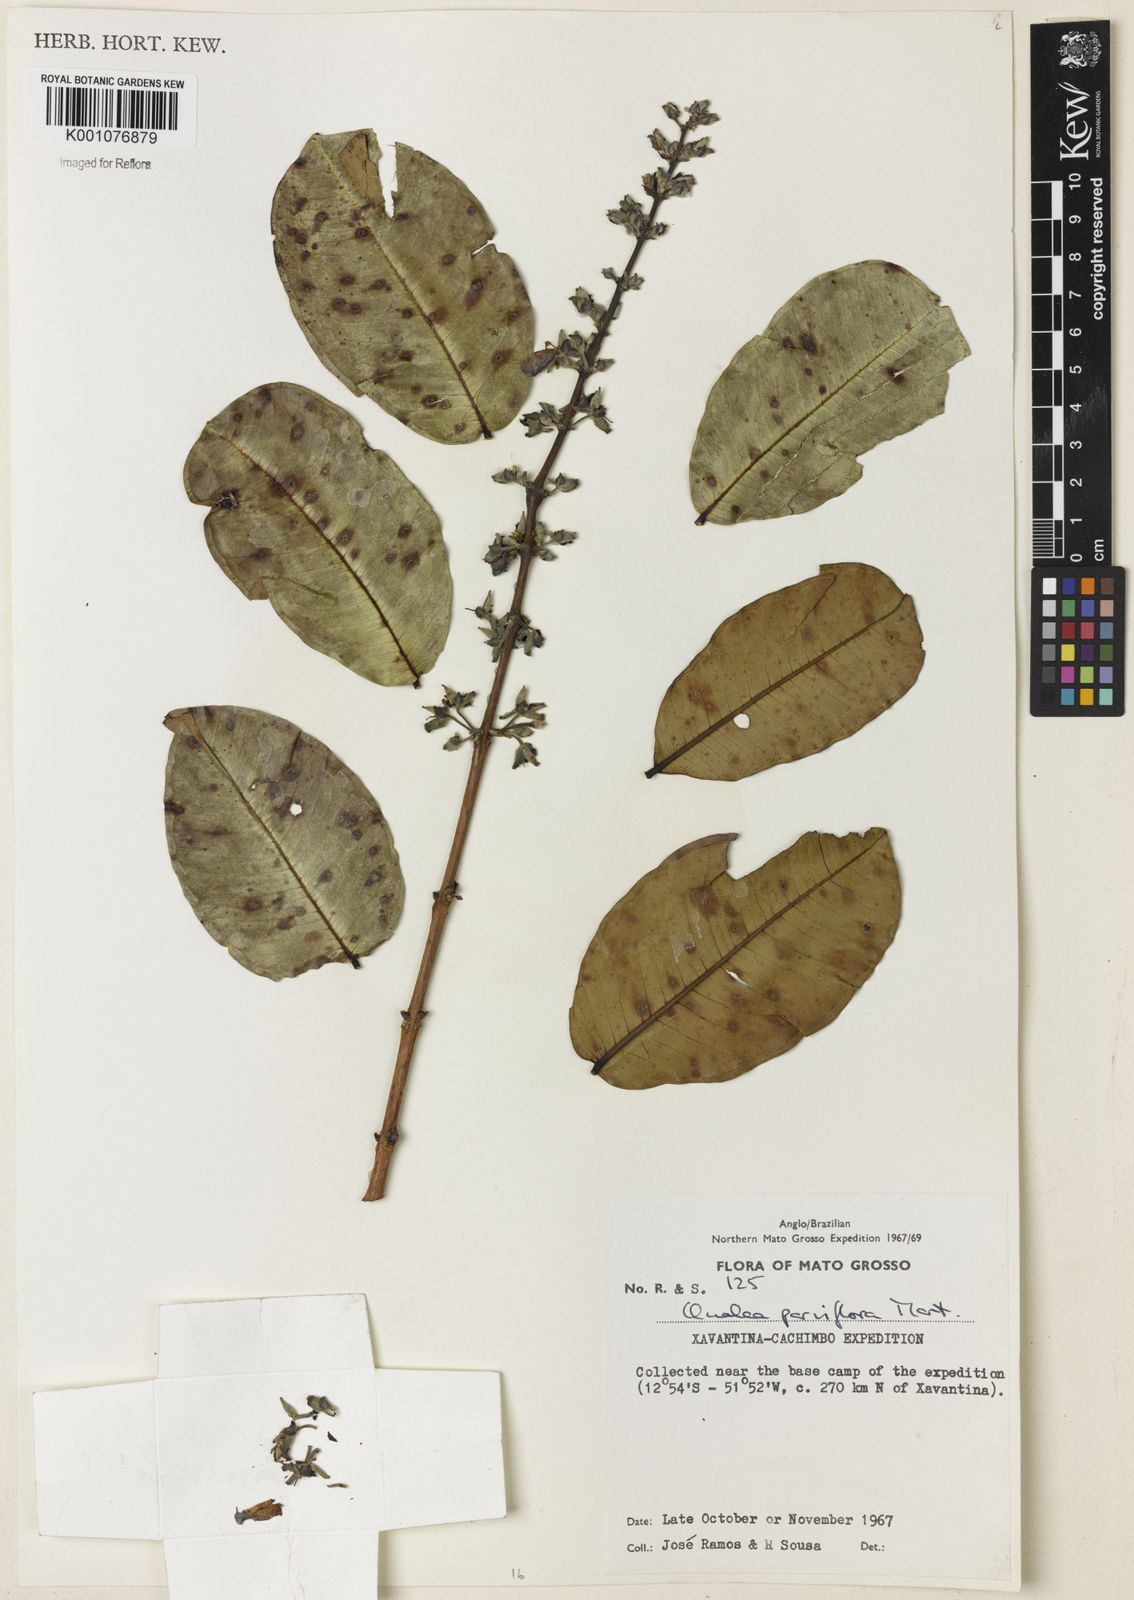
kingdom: Plantae
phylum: Tracheophyta
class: Magnoliopsida
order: Myrtales
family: Vochysiaceae
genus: Qualea
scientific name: Qualea parviflora
